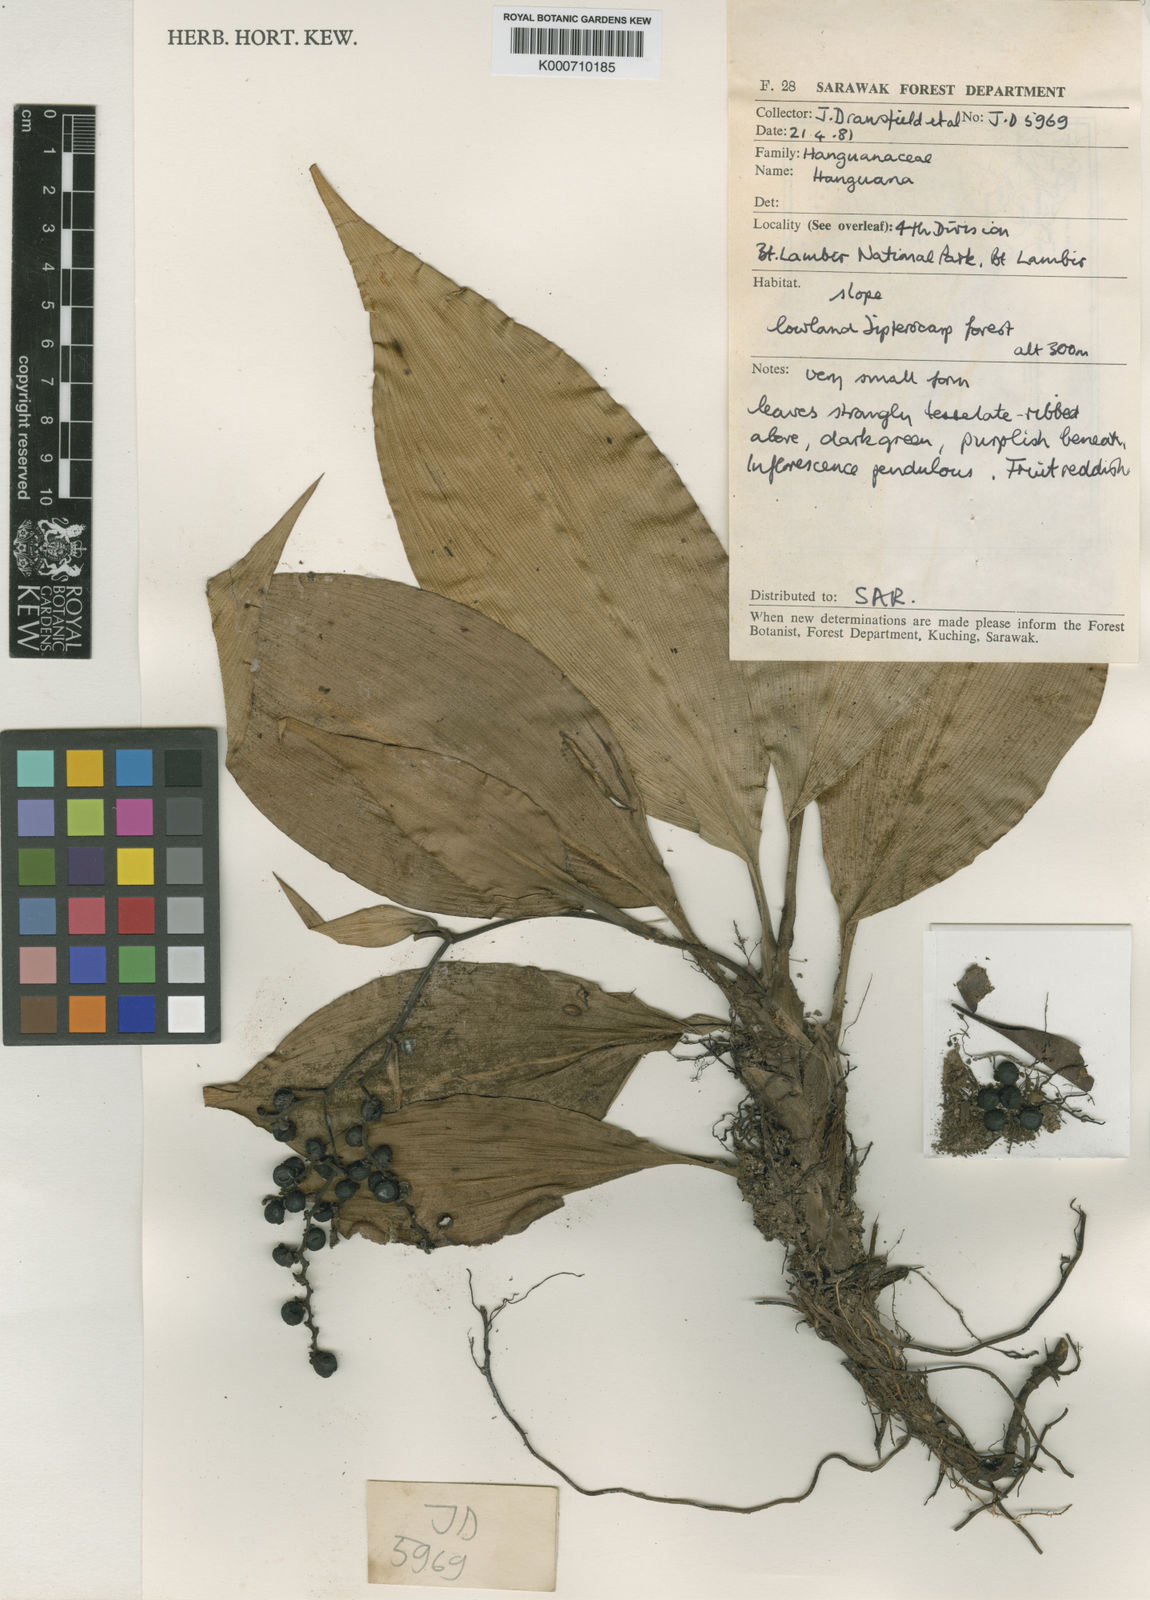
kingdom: Plantae
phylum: Tracheophyta
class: Liliopsida
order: Commelinales
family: Hanguanaceae
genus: Hanguana
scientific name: Hanguana
